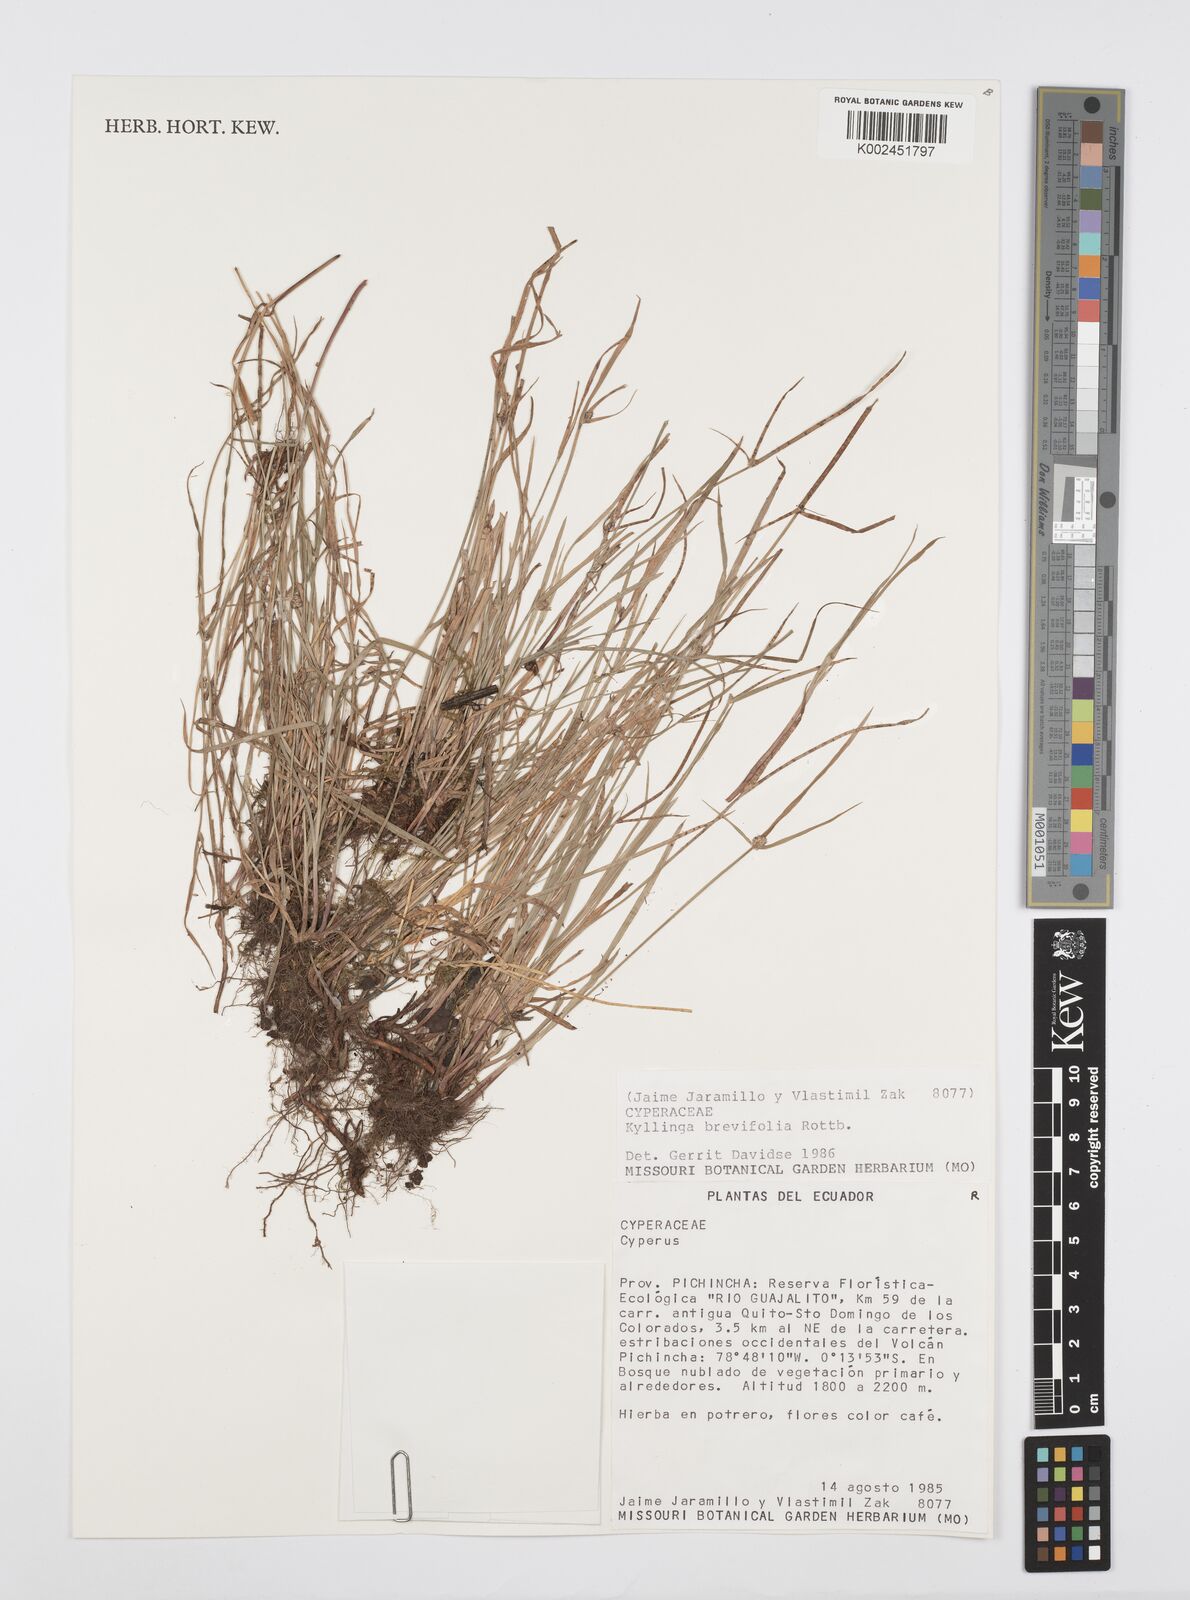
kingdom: Plantae
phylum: Tracheophyta
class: Liliopsida
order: Poales
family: Cyperaceae
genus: Cyperus
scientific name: Cyperus brevifolius
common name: Globe kyllinga
